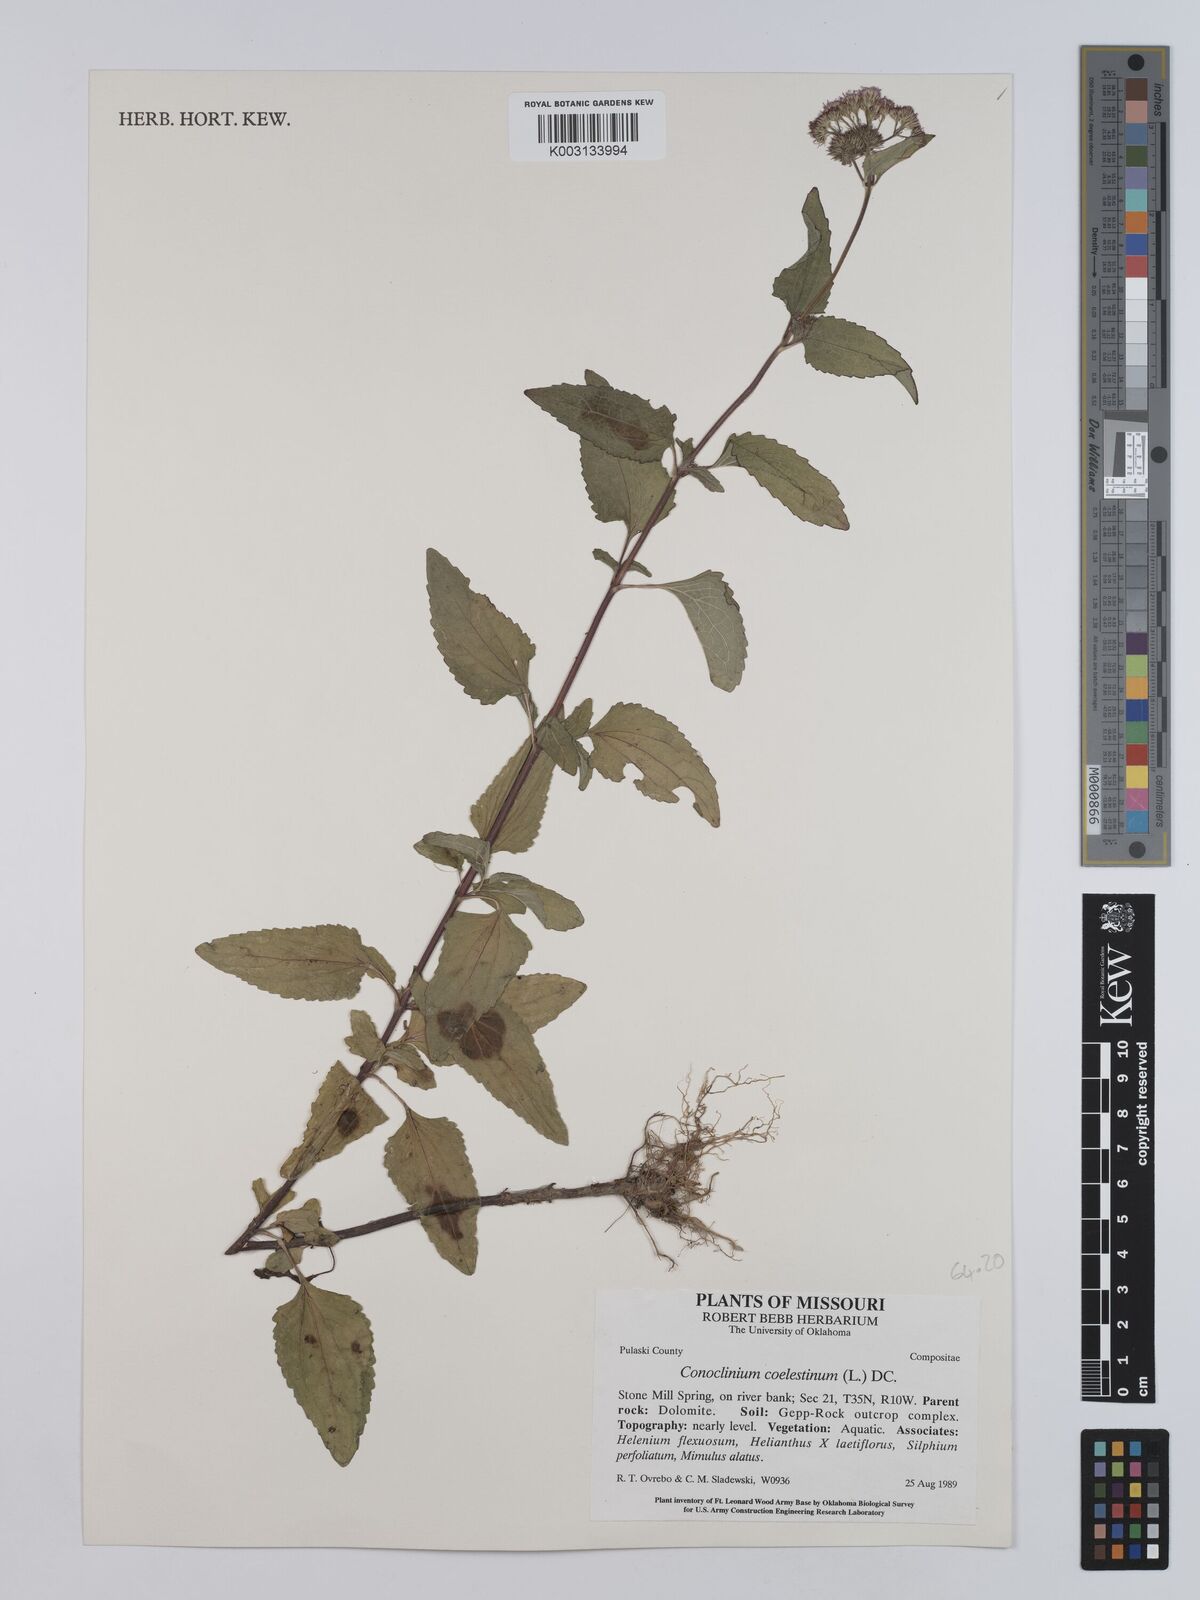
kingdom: Plantae
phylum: Tracheophyta
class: Magnoliopsida
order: Asterales
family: Asteraceae
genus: Conoclinium
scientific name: Conoclinium coelestinum
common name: Blue mistflower
